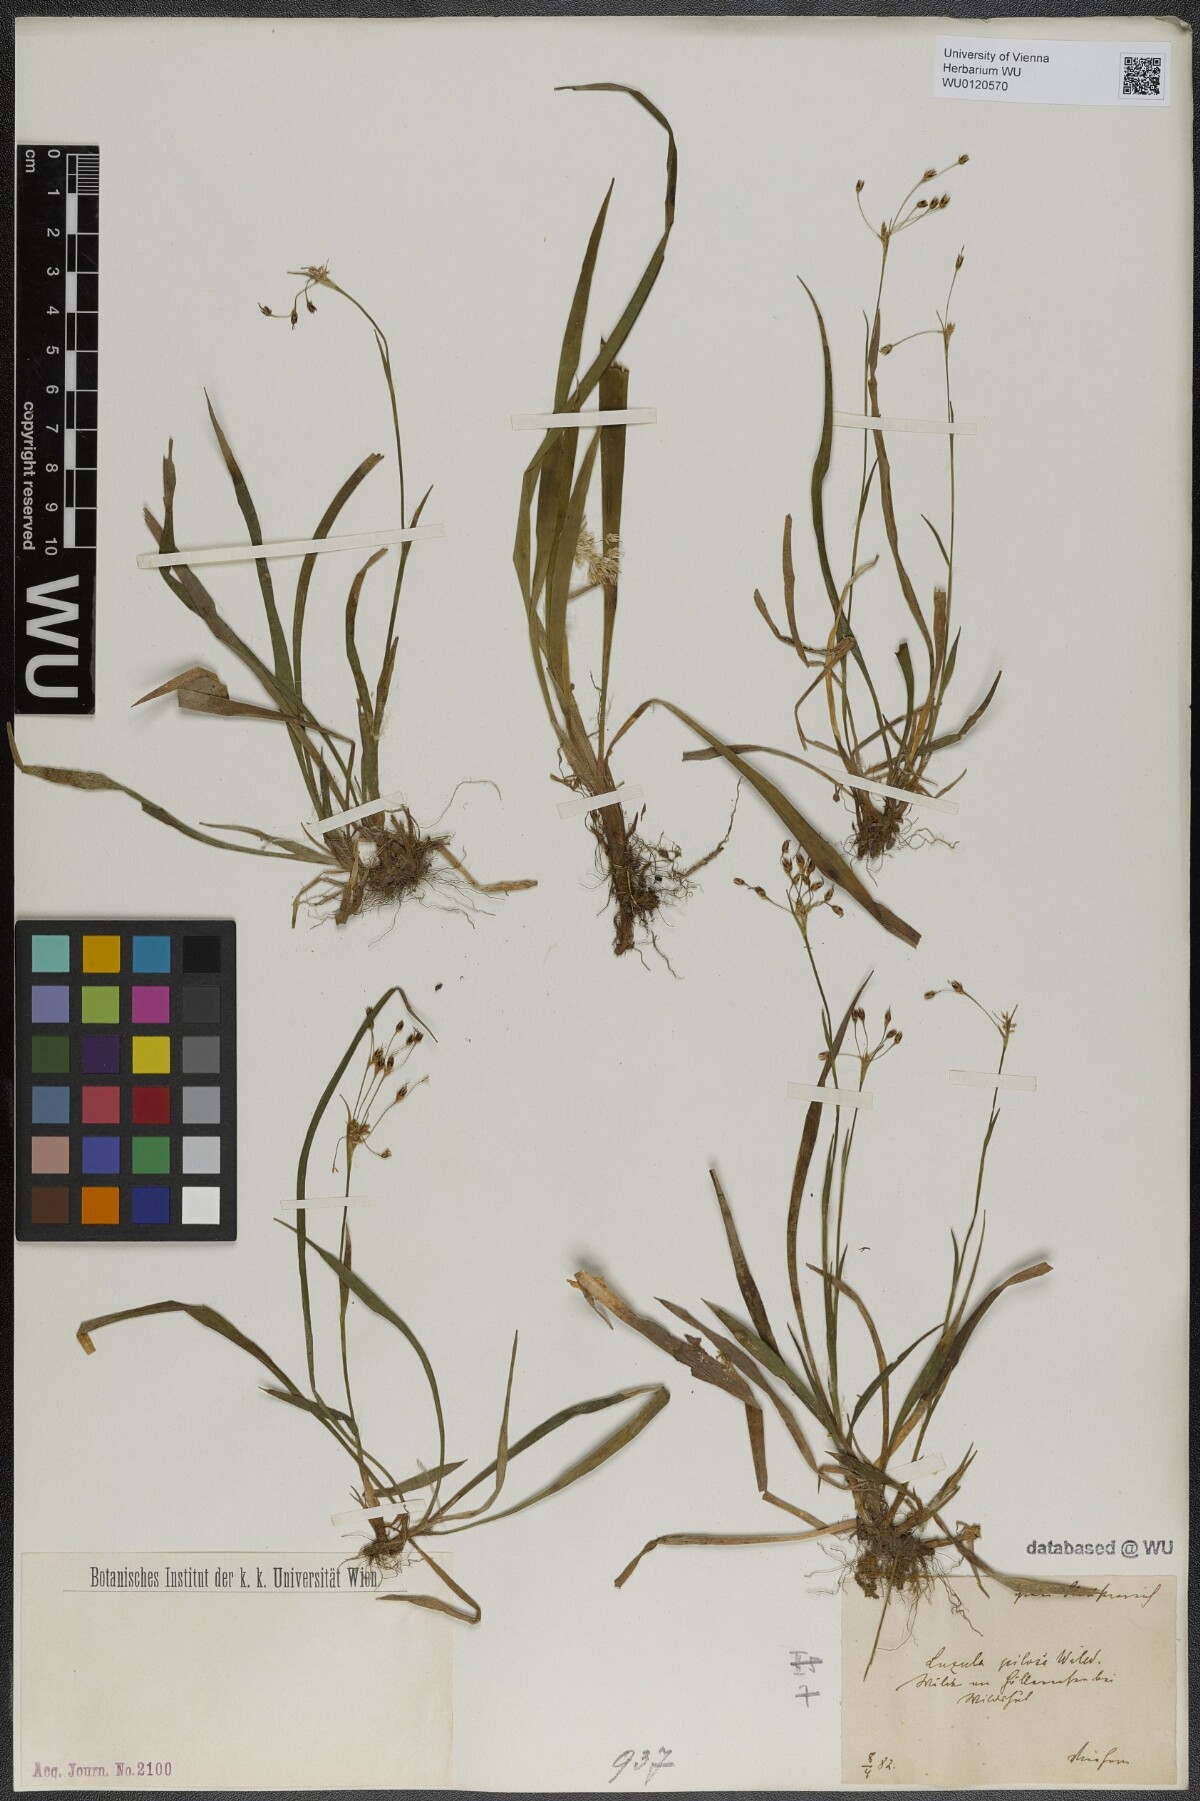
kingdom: Plantae
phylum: Tracheophyta
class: Liliopsida
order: Poales
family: Juncaceae
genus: Luzula
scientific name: Luzula pilosa
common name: Hairy wood-rush
